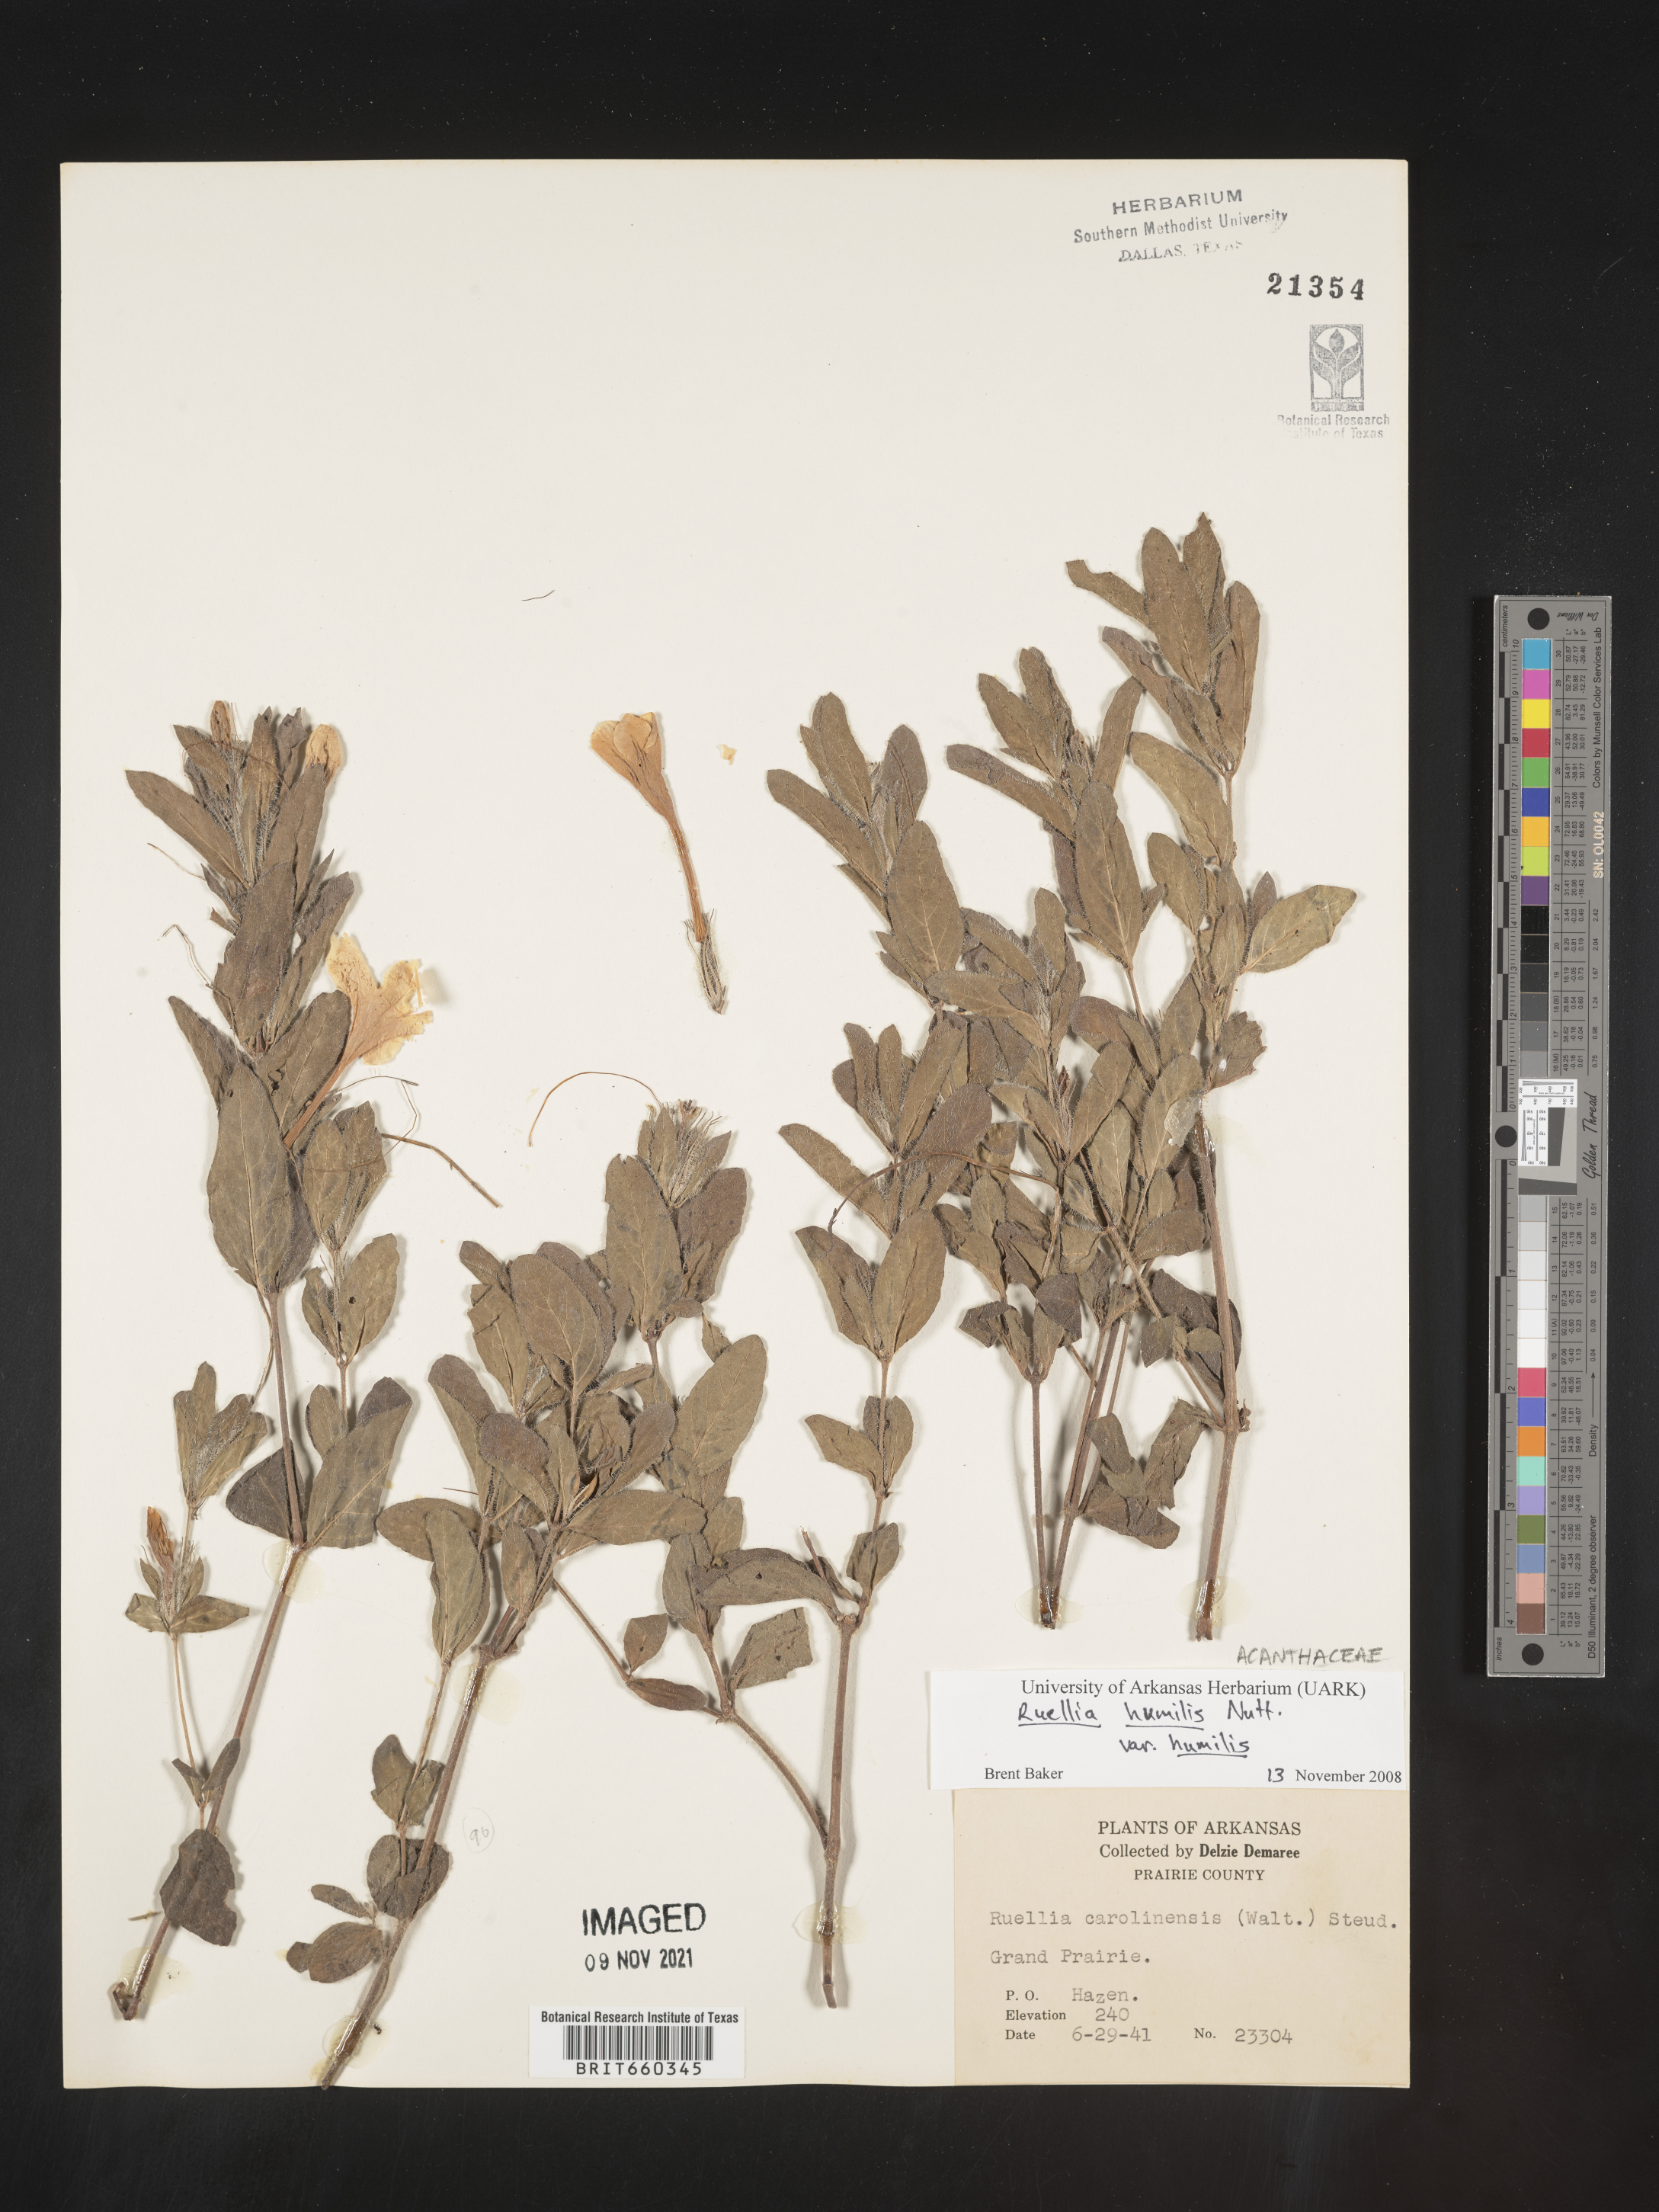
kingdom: Plantae
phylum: Tracheophyta
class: Magnoliopsida
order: Lamiales
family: Acanthaceae
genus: Ruellia
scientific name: Ruellia humilis
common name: Fringe-leaf ruellia
